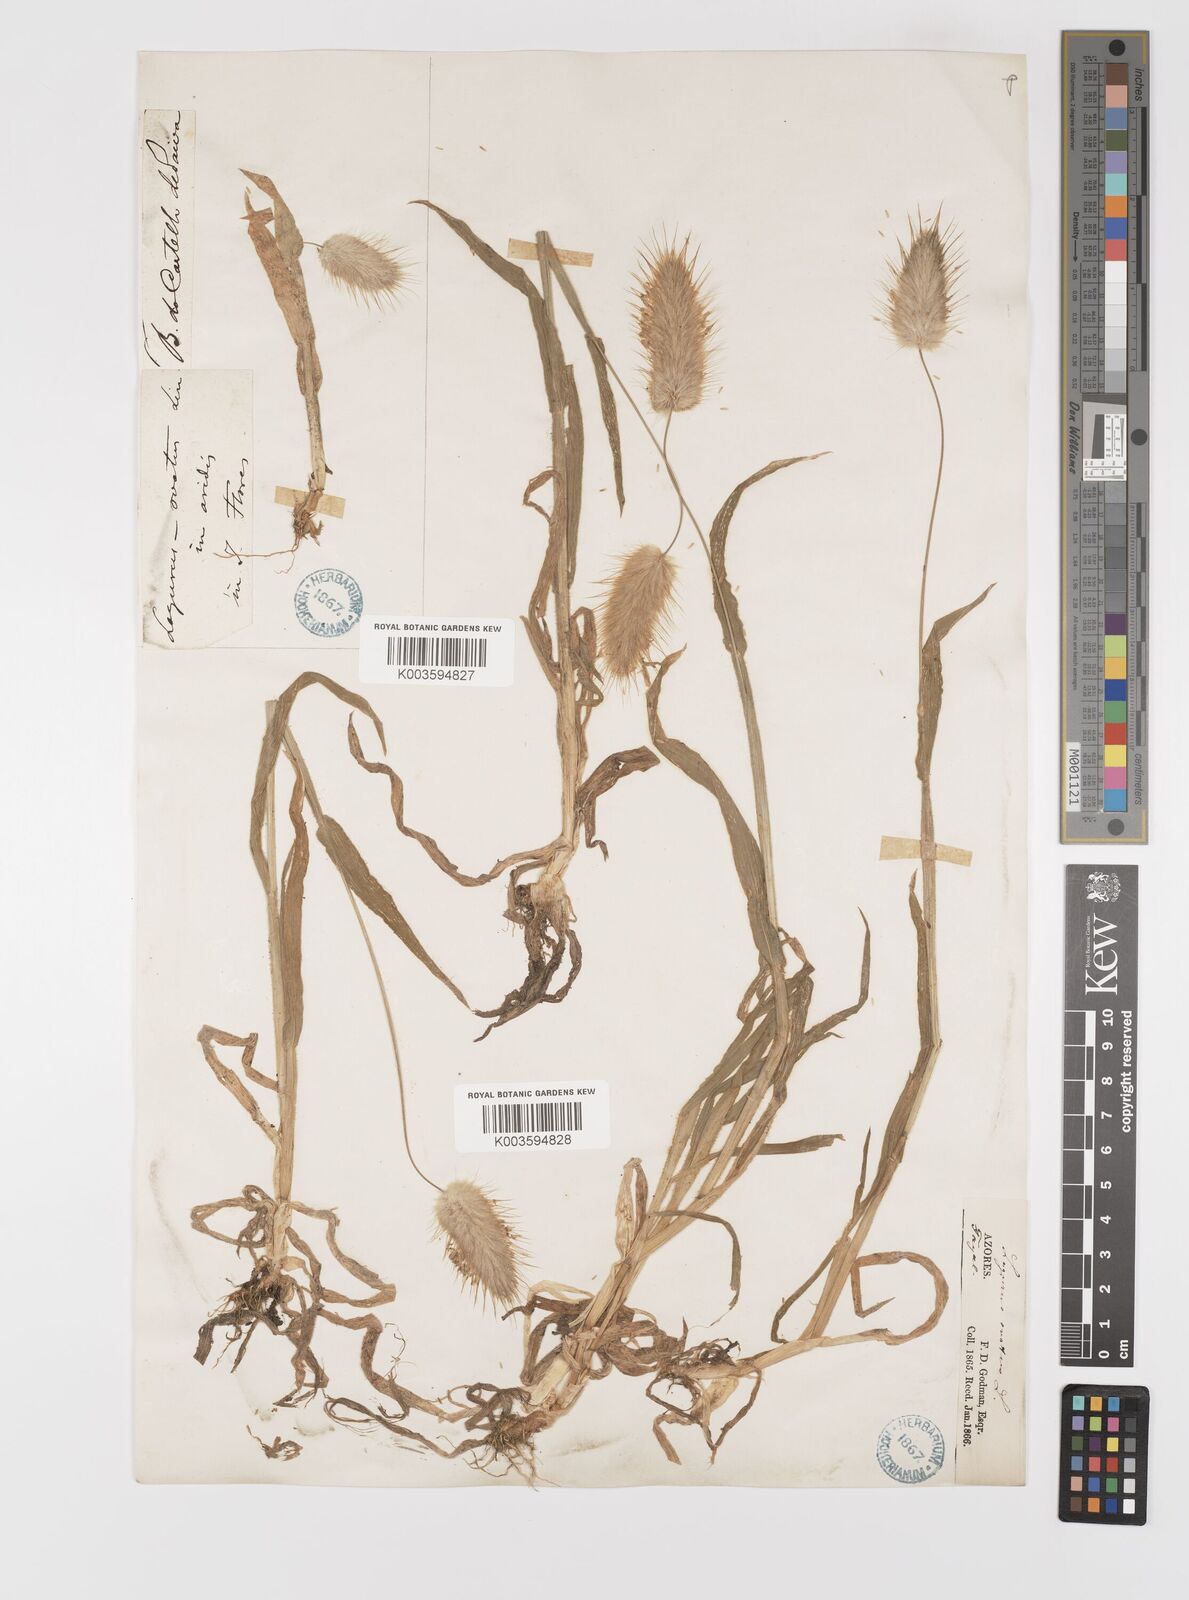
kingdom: Plantae
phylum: Tracheophyta
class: Liliopsida
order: Poales
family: Poaceae
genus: Lagurus
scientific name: Lagurus ovatus
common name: Hare's-tail
